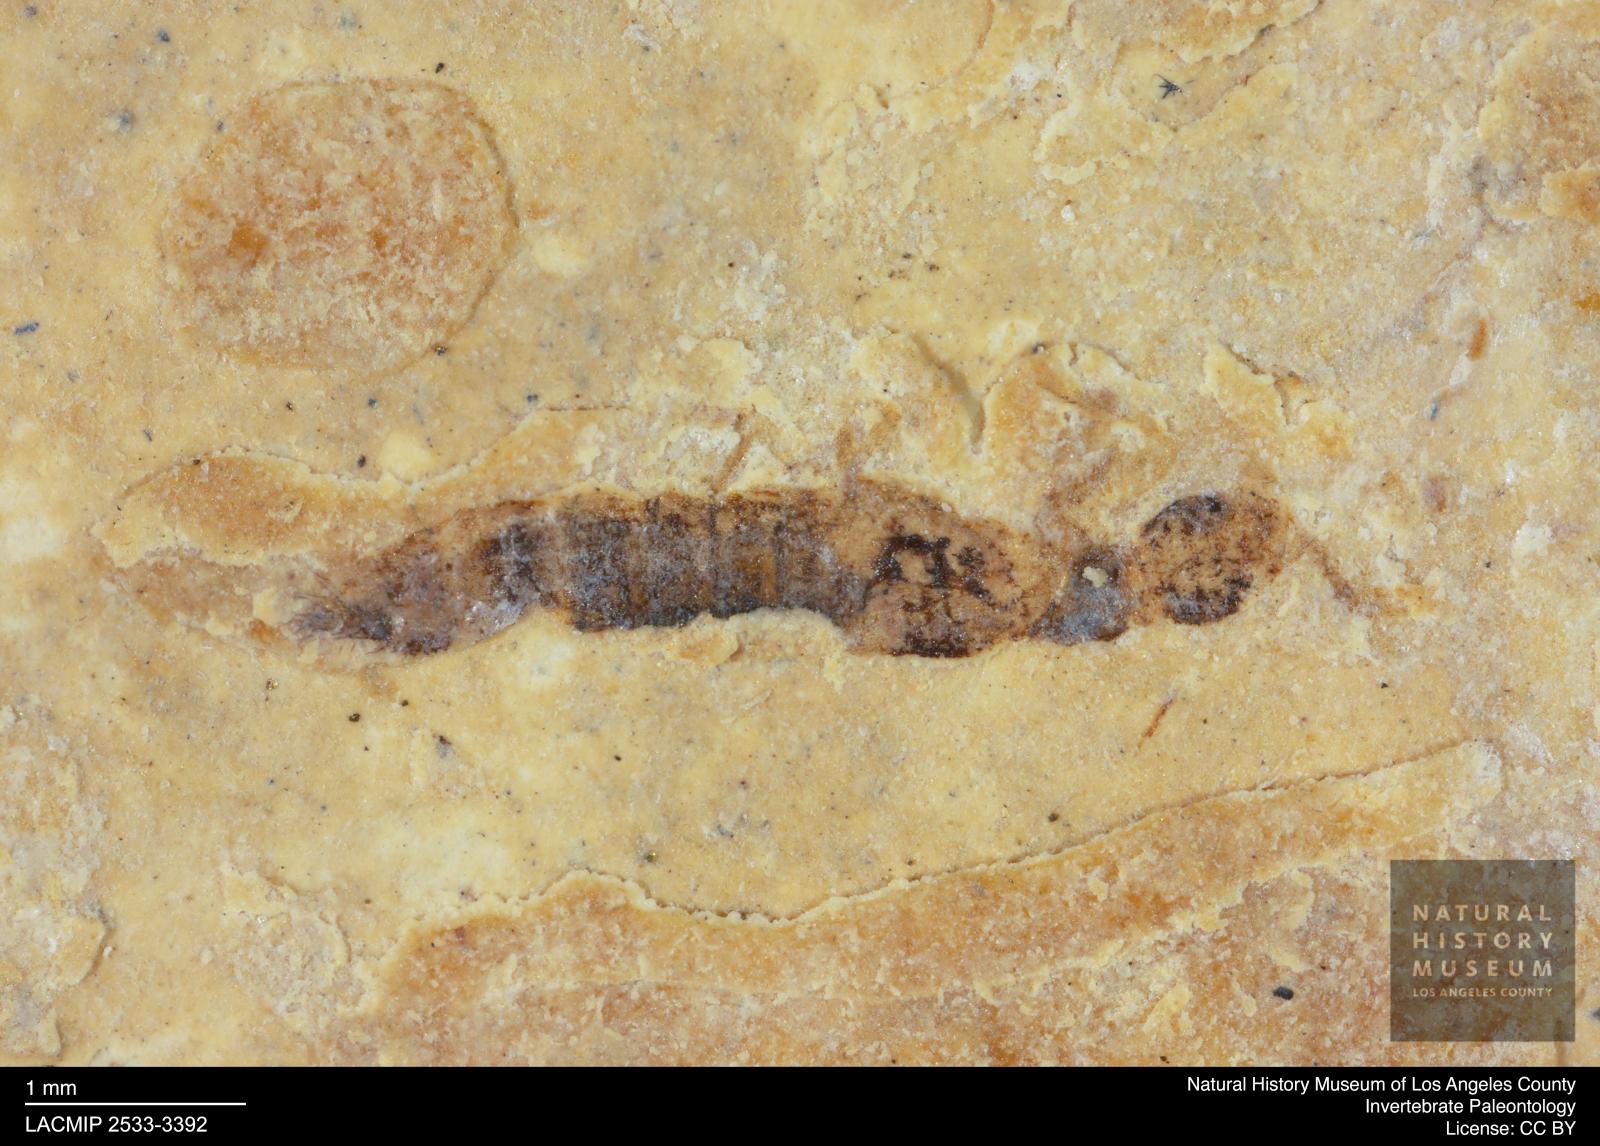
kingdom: Animalia
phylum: Arthropoda
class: Insecta
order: Coleoptera
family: Staphylinidae
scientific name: Staphylinidae
